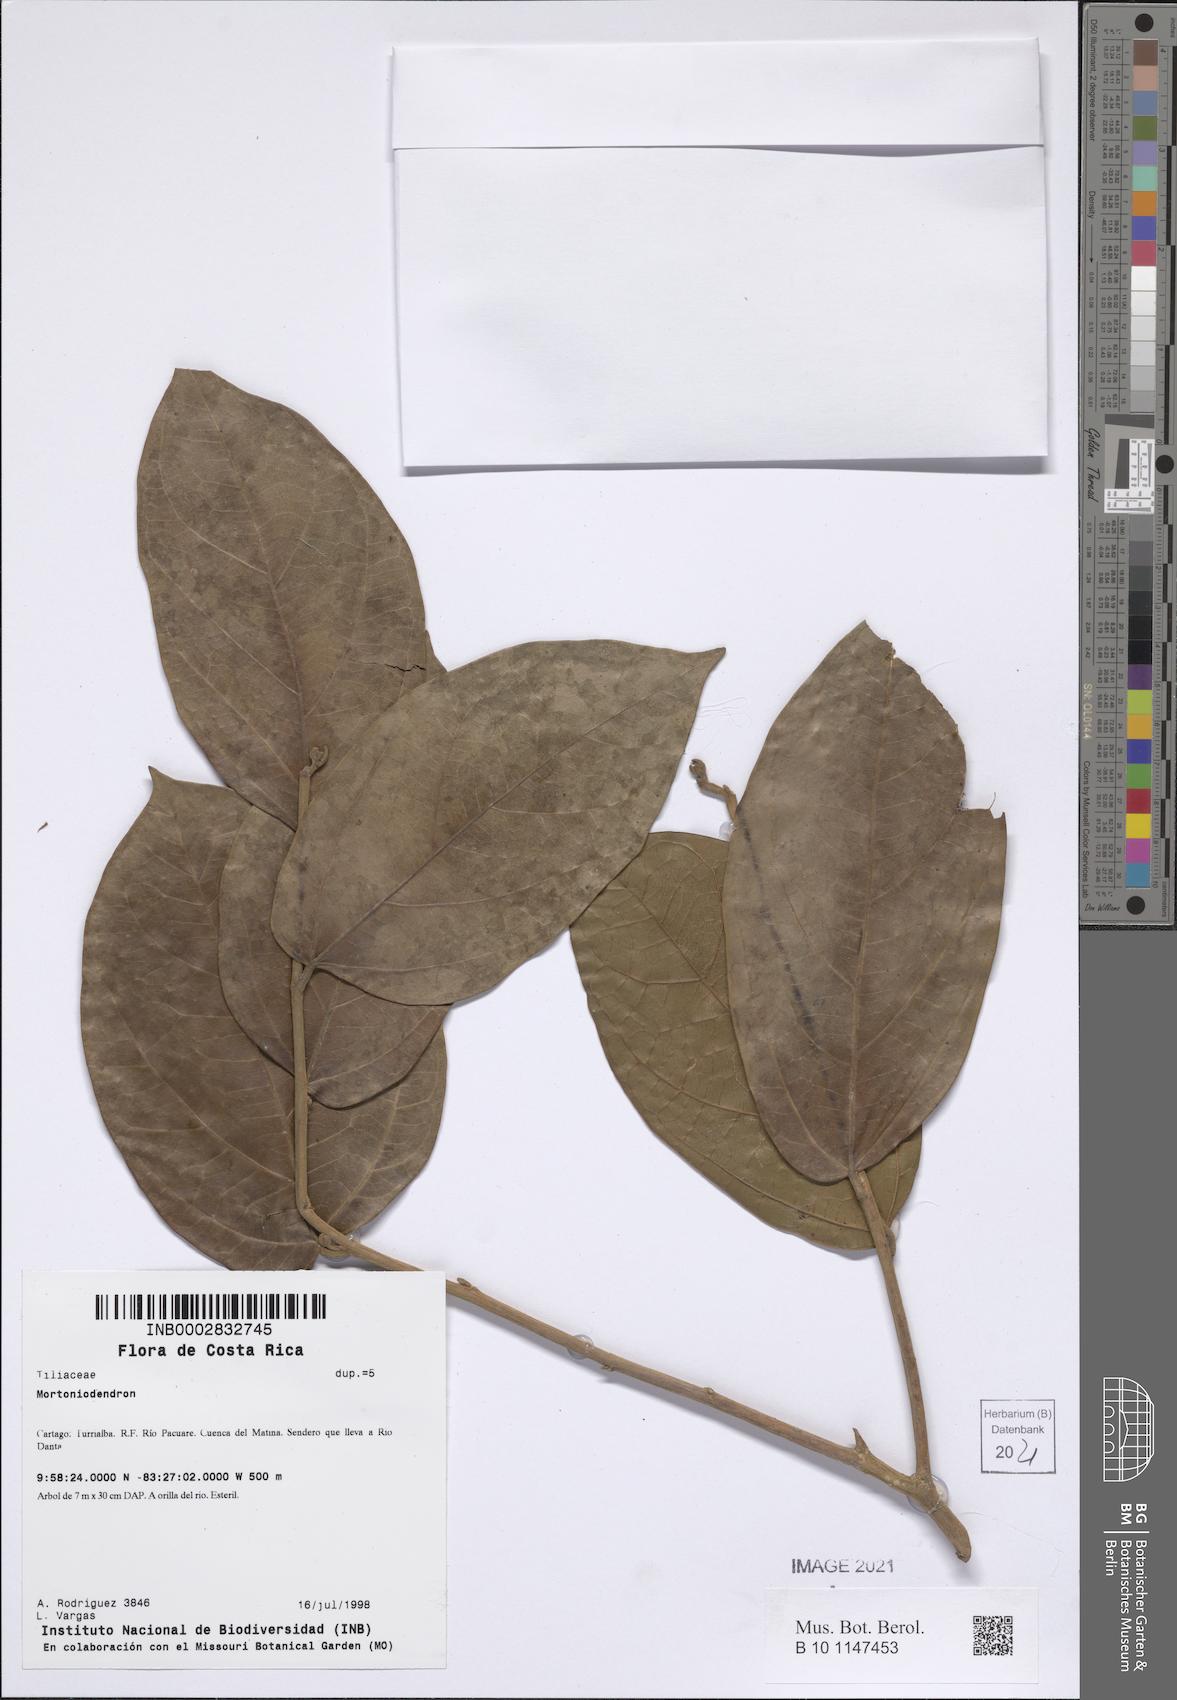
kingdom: Plantae
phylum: Tracheophyta
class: Magnoliopsida
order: Malvales
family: Malvaceae
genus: Mortoniodendron
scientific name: Mortoniodendron
